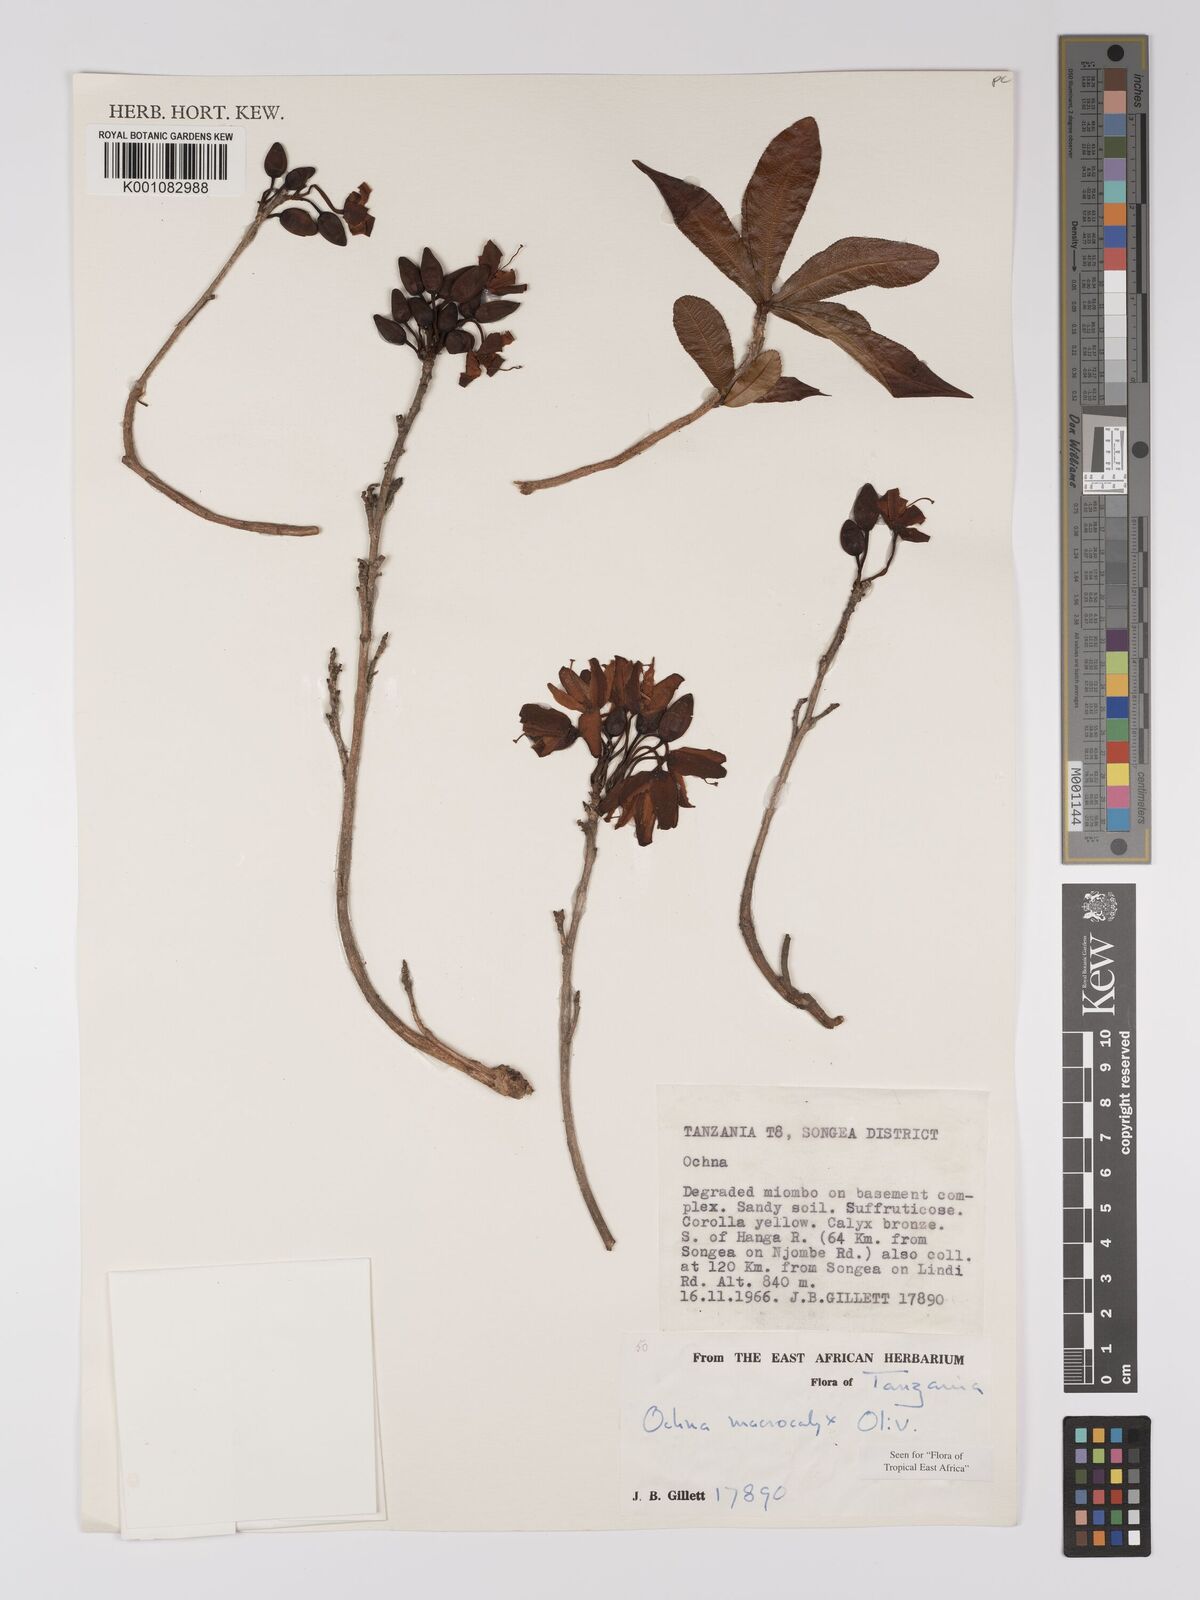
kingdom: Plantae
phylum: Tracheophyta
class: Magnoliopsida
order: Malpighiales
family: Ochnaceae
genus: Ochna
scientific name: Ochna macrocalyx
